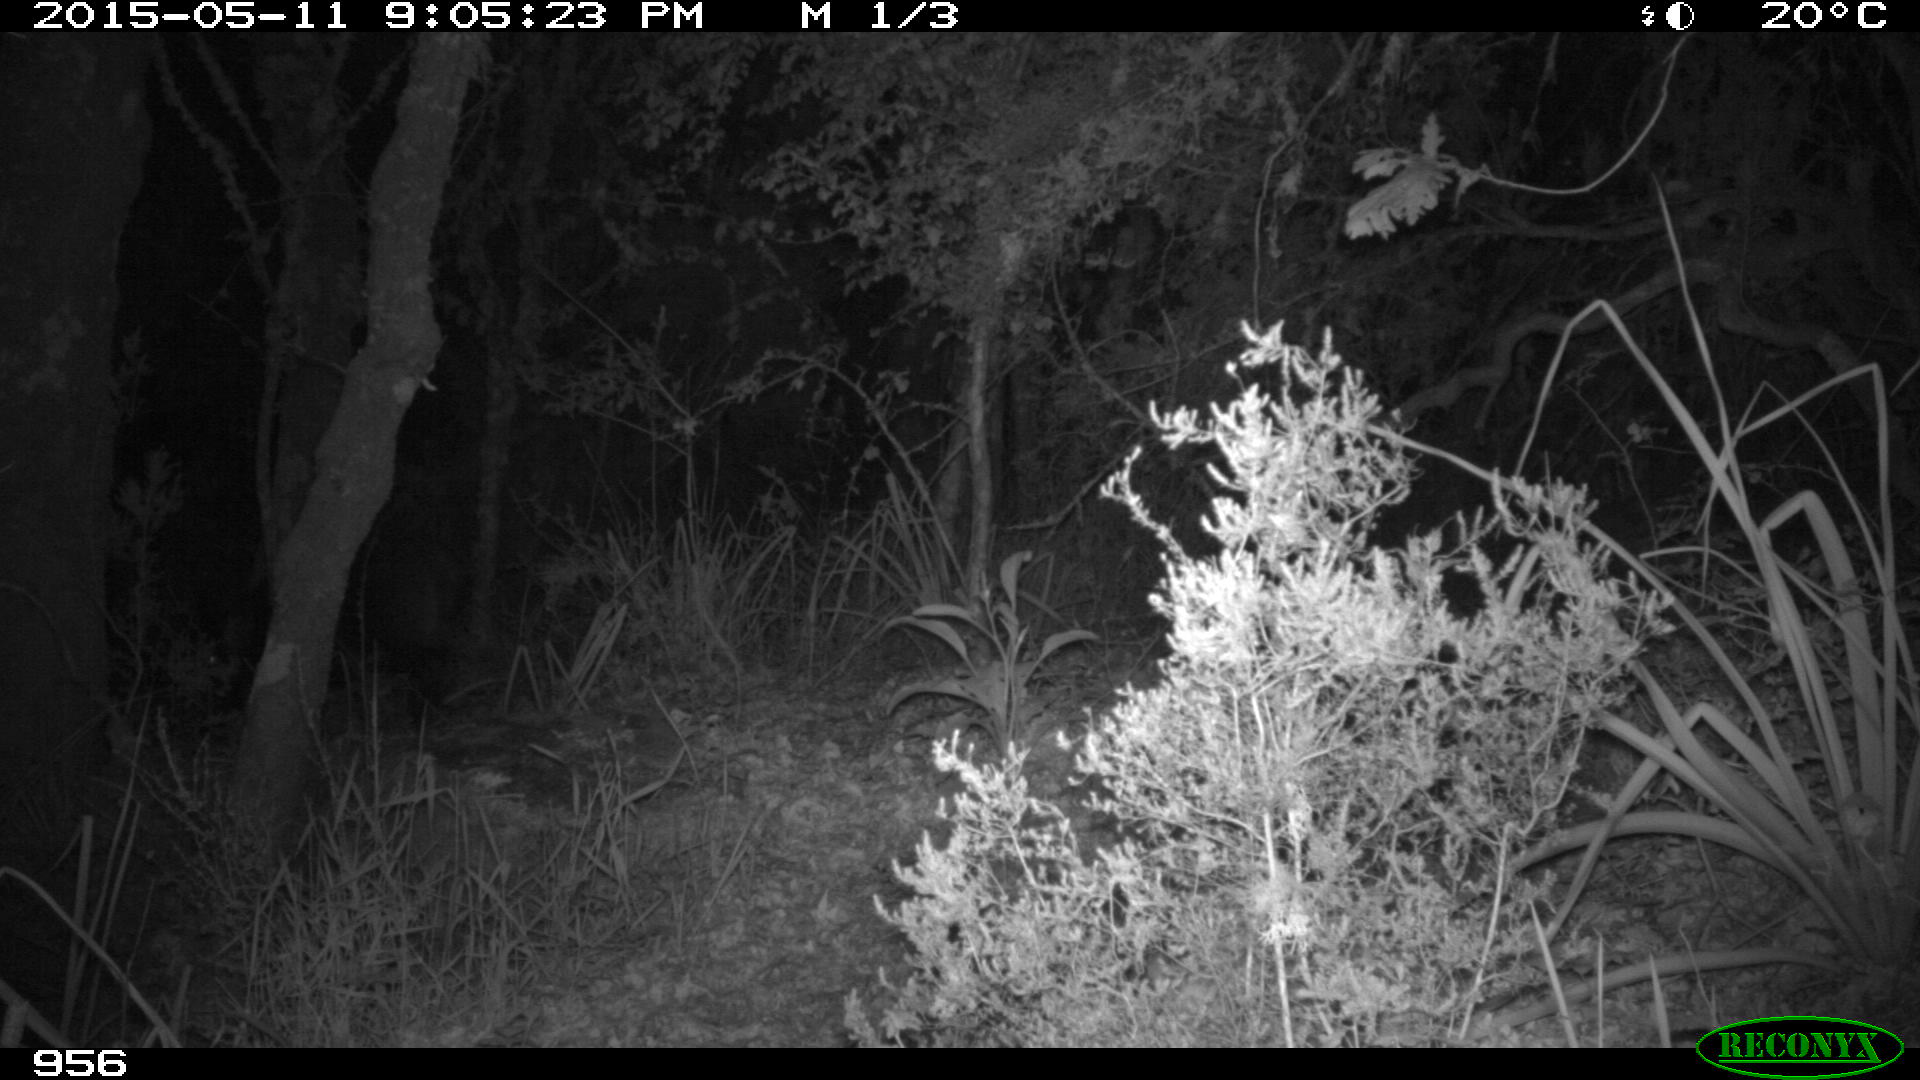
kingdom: Animalia
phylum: Chordata
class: Mammalia
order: Artiodactyla
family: Suidae
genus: Sus
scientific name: Sus scrofa
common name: Wild boar
